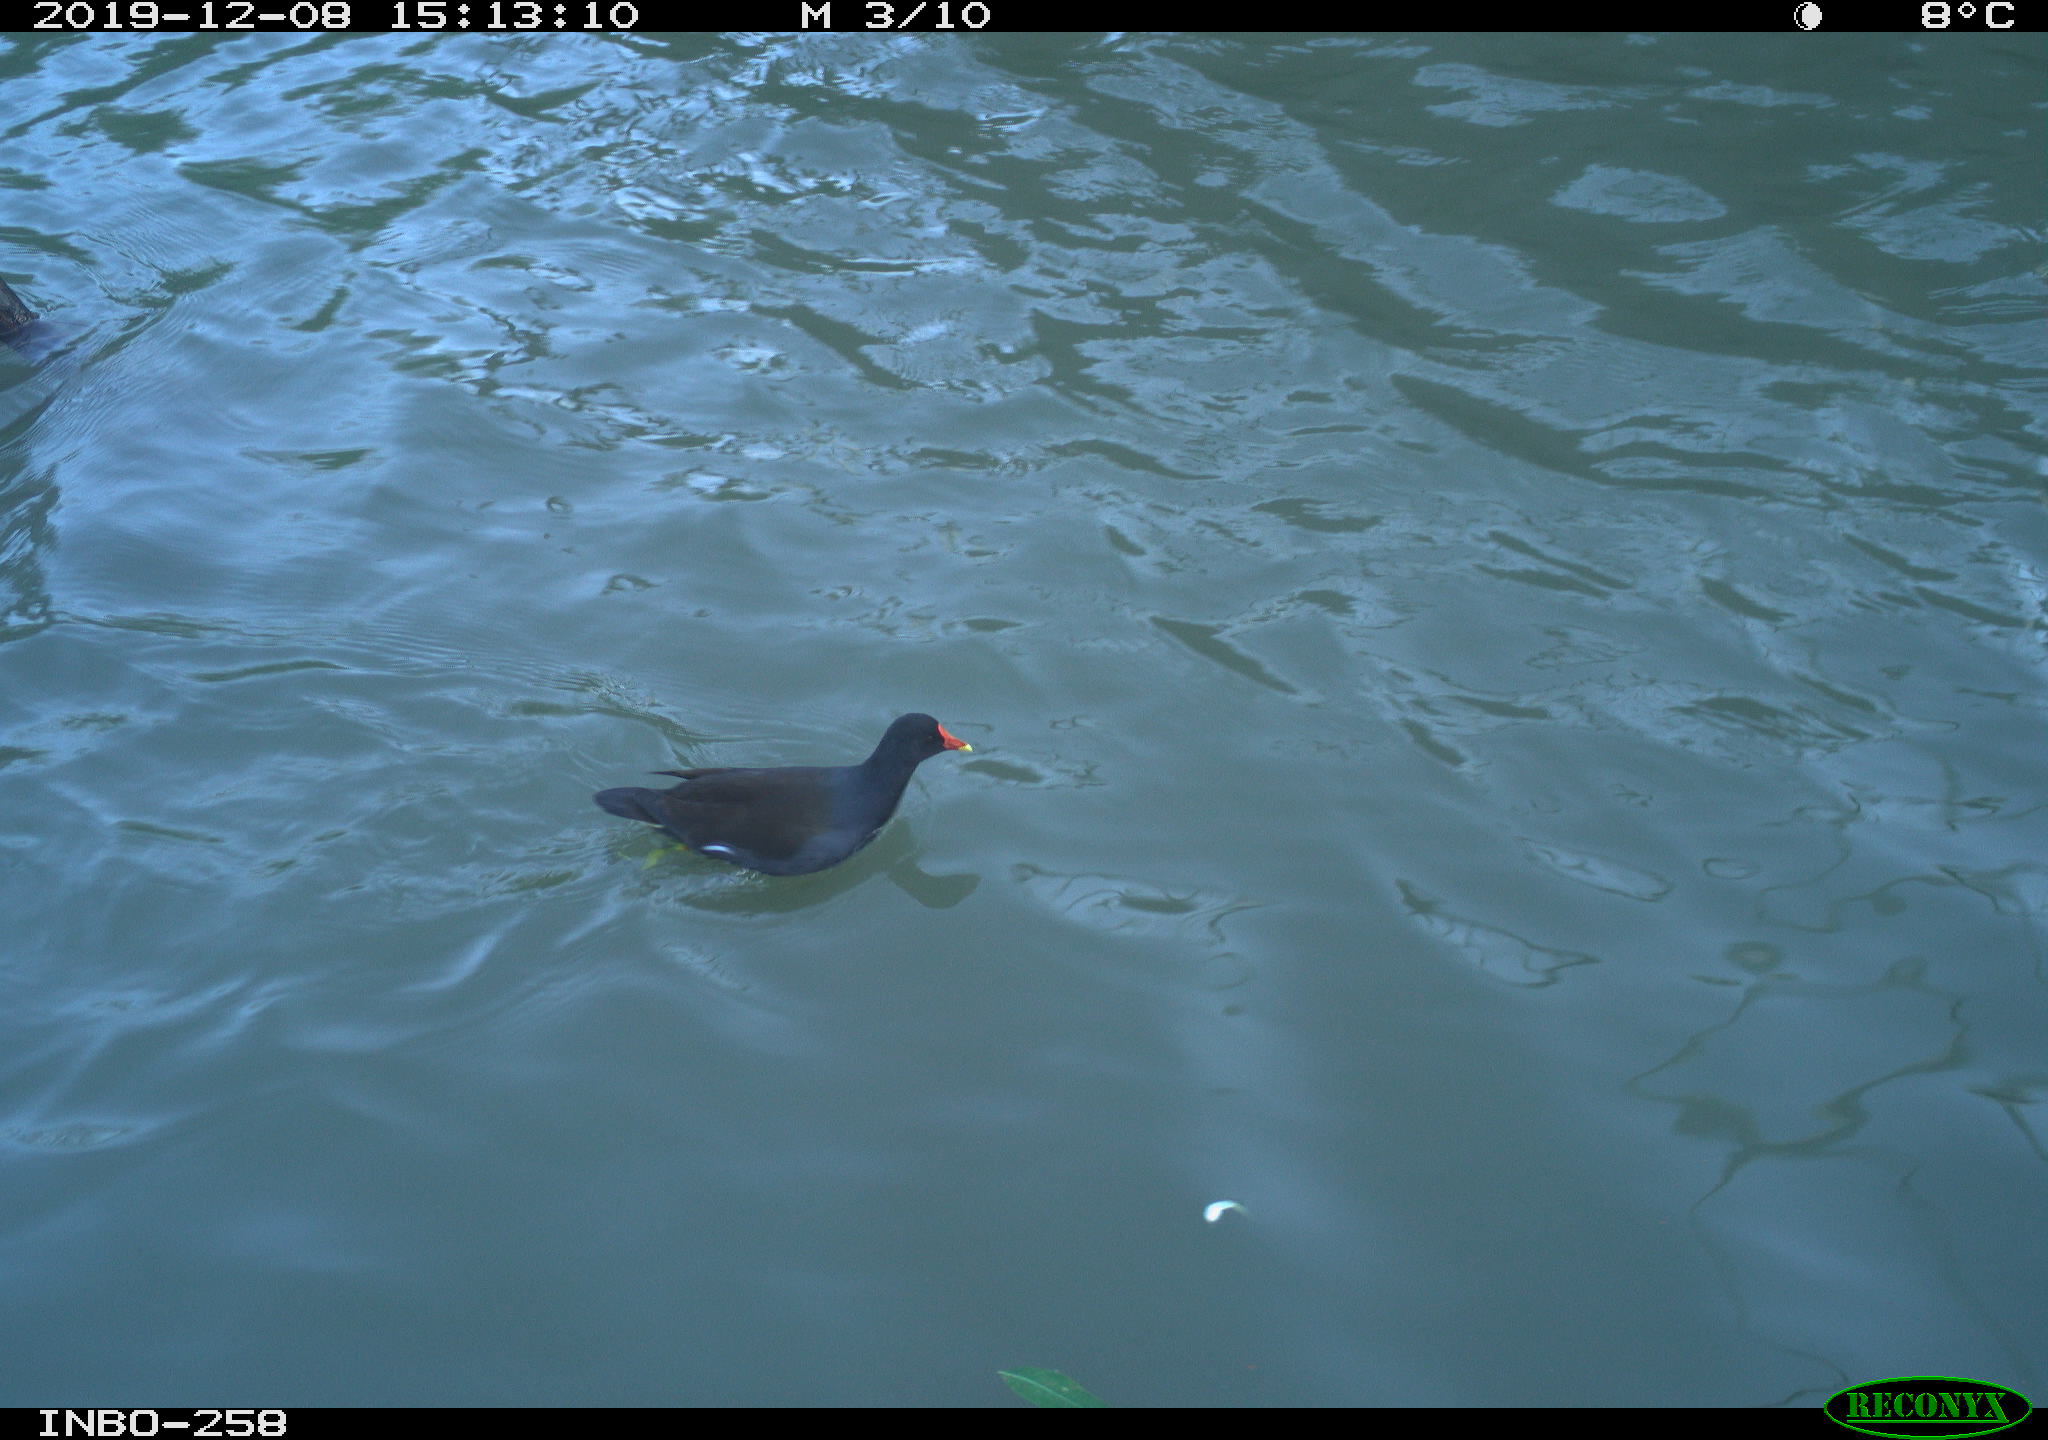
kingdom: Animalia
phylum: Chordata
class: Aves
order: Gruiformes
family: Rallidae
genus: Gallinula
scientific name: Gallinula chloropus
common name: Common moorhen
